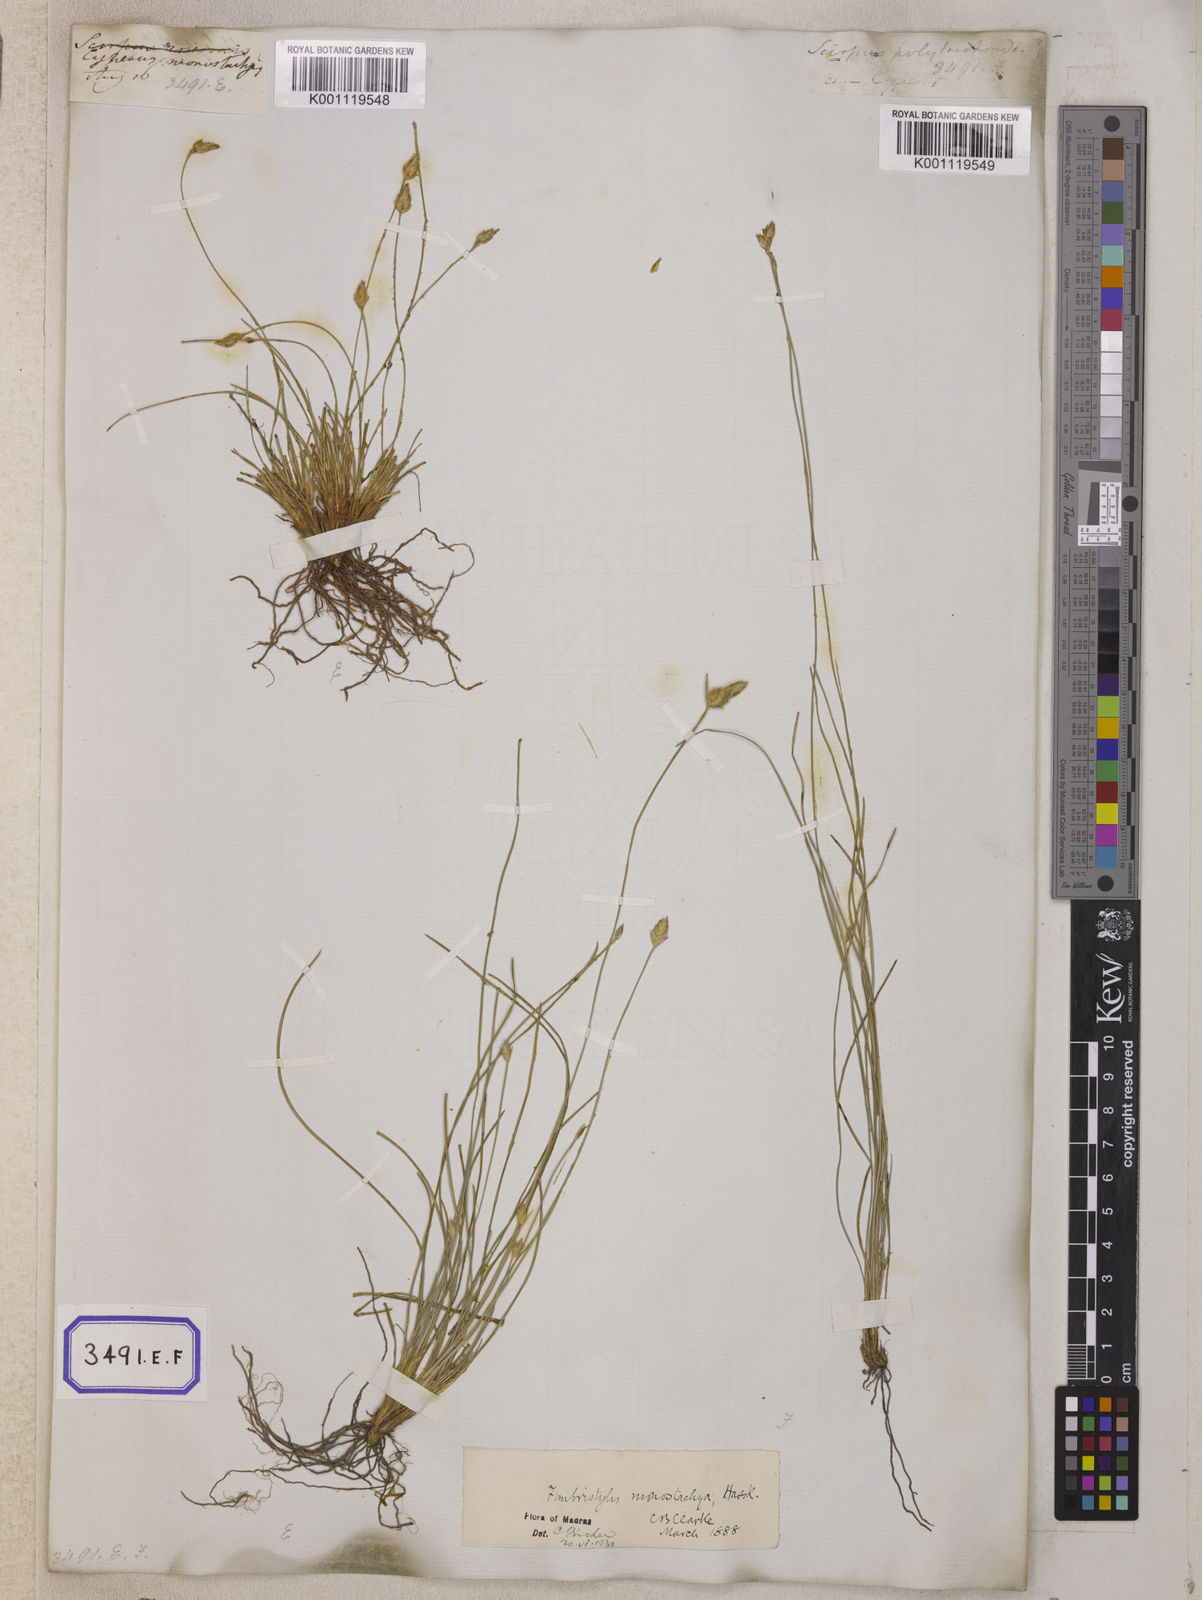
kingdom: Plantae
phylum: Tracheophyta
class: Liliopsida
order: Poales
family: Cyperaceae
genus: Abildgaardia
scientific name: Abildgaardia
